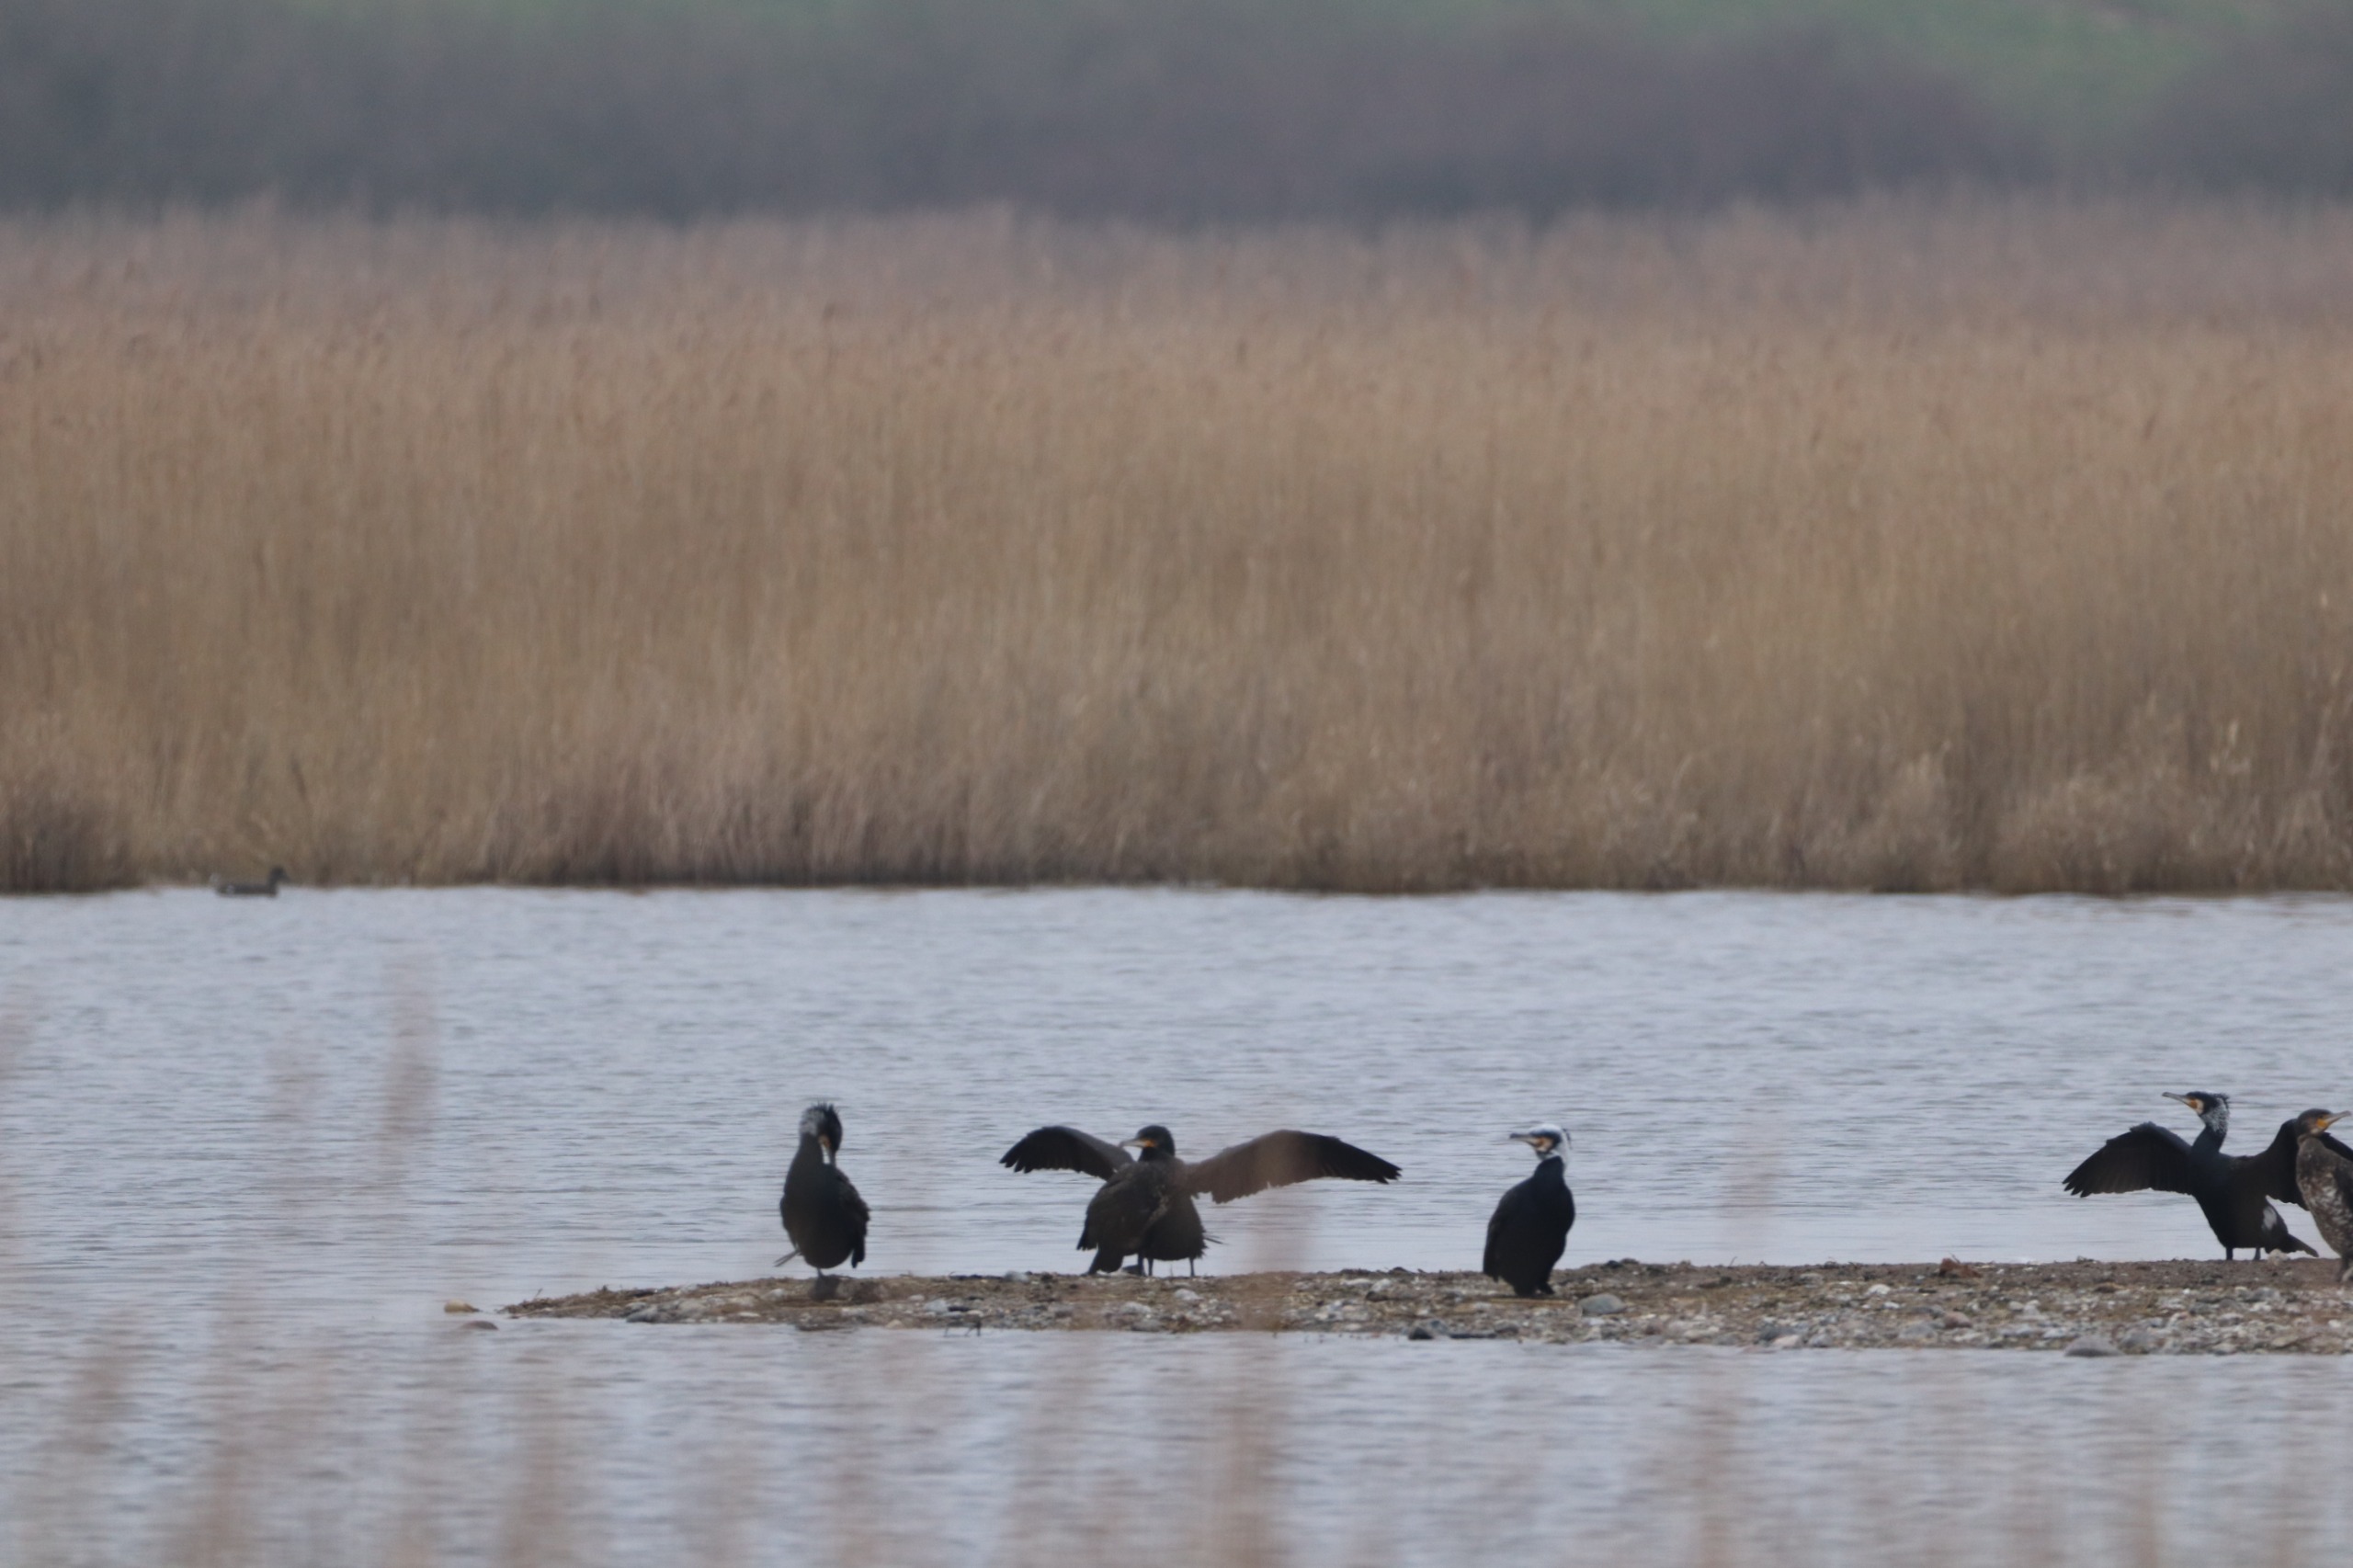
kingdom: Animalia
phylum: Chordata
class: Aves
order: Suliformes
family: Phalacrocoracidae
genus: Phalacrocorax
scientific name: Phalacrocorax carbo
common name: Skarv
